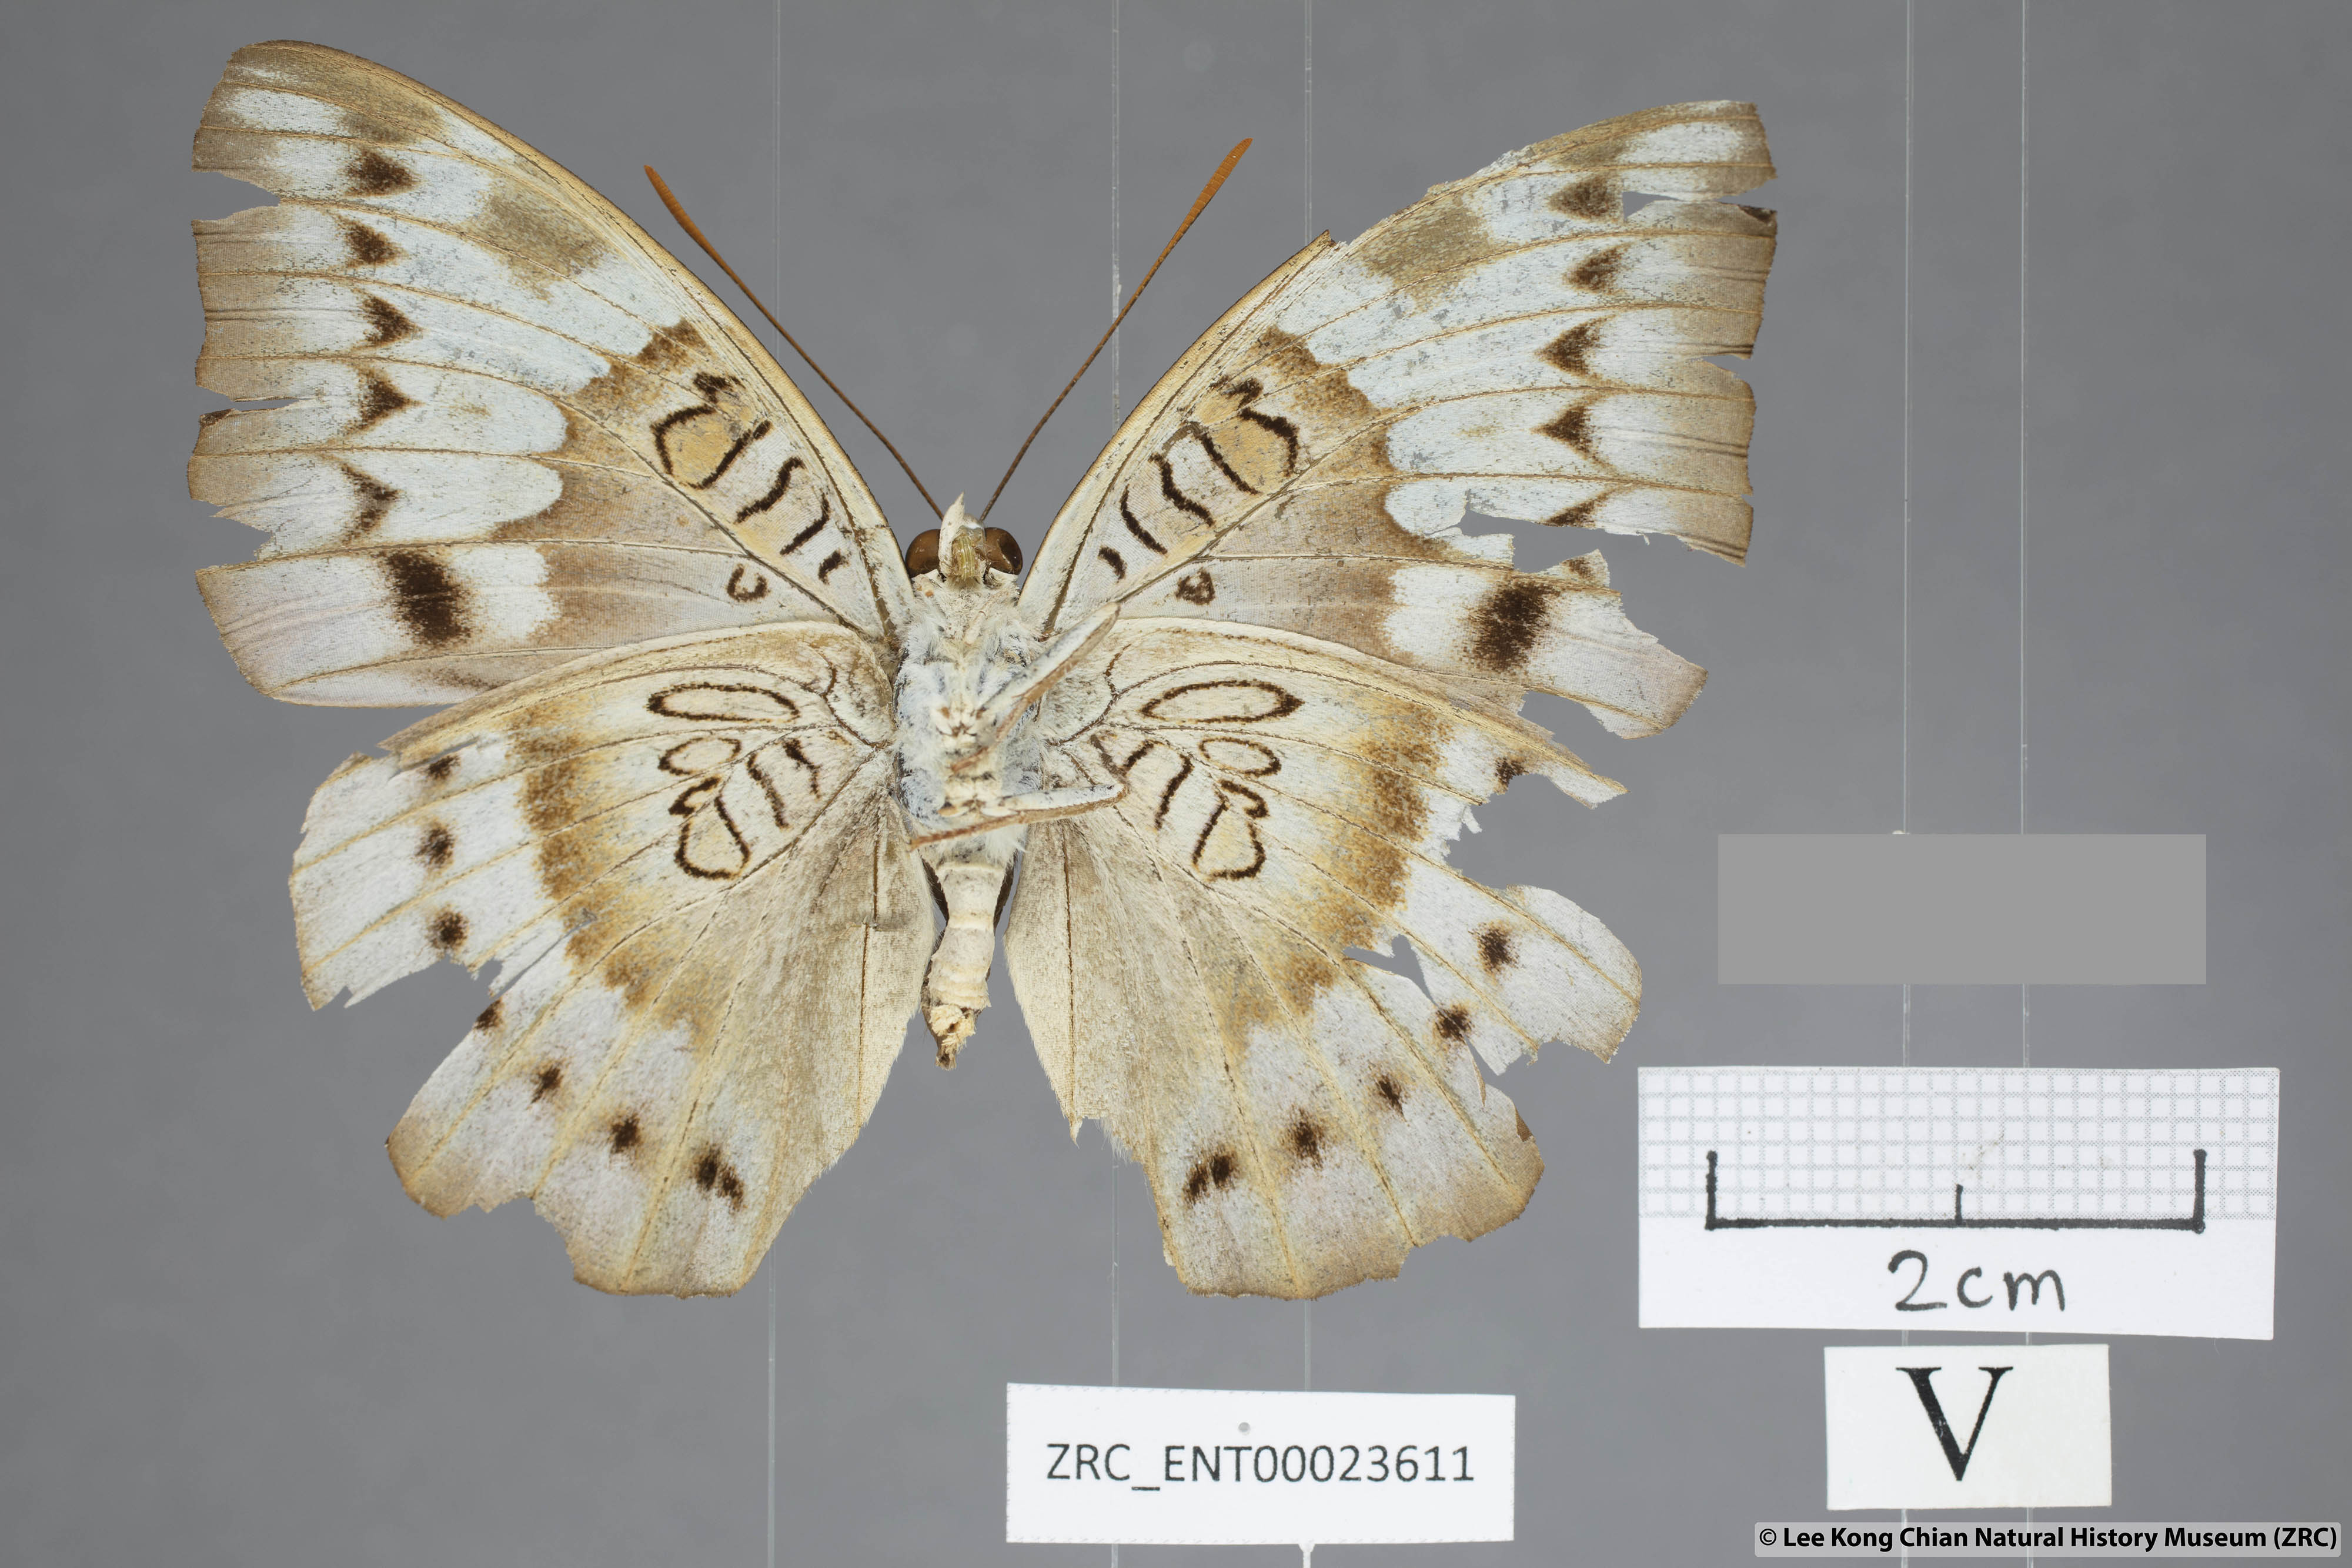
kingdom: Animalia
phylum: Arthropoda
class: Insecta
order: Lepidoptera
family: Nymphalidae
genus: Euthalia
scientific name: Euthalia alpheda
